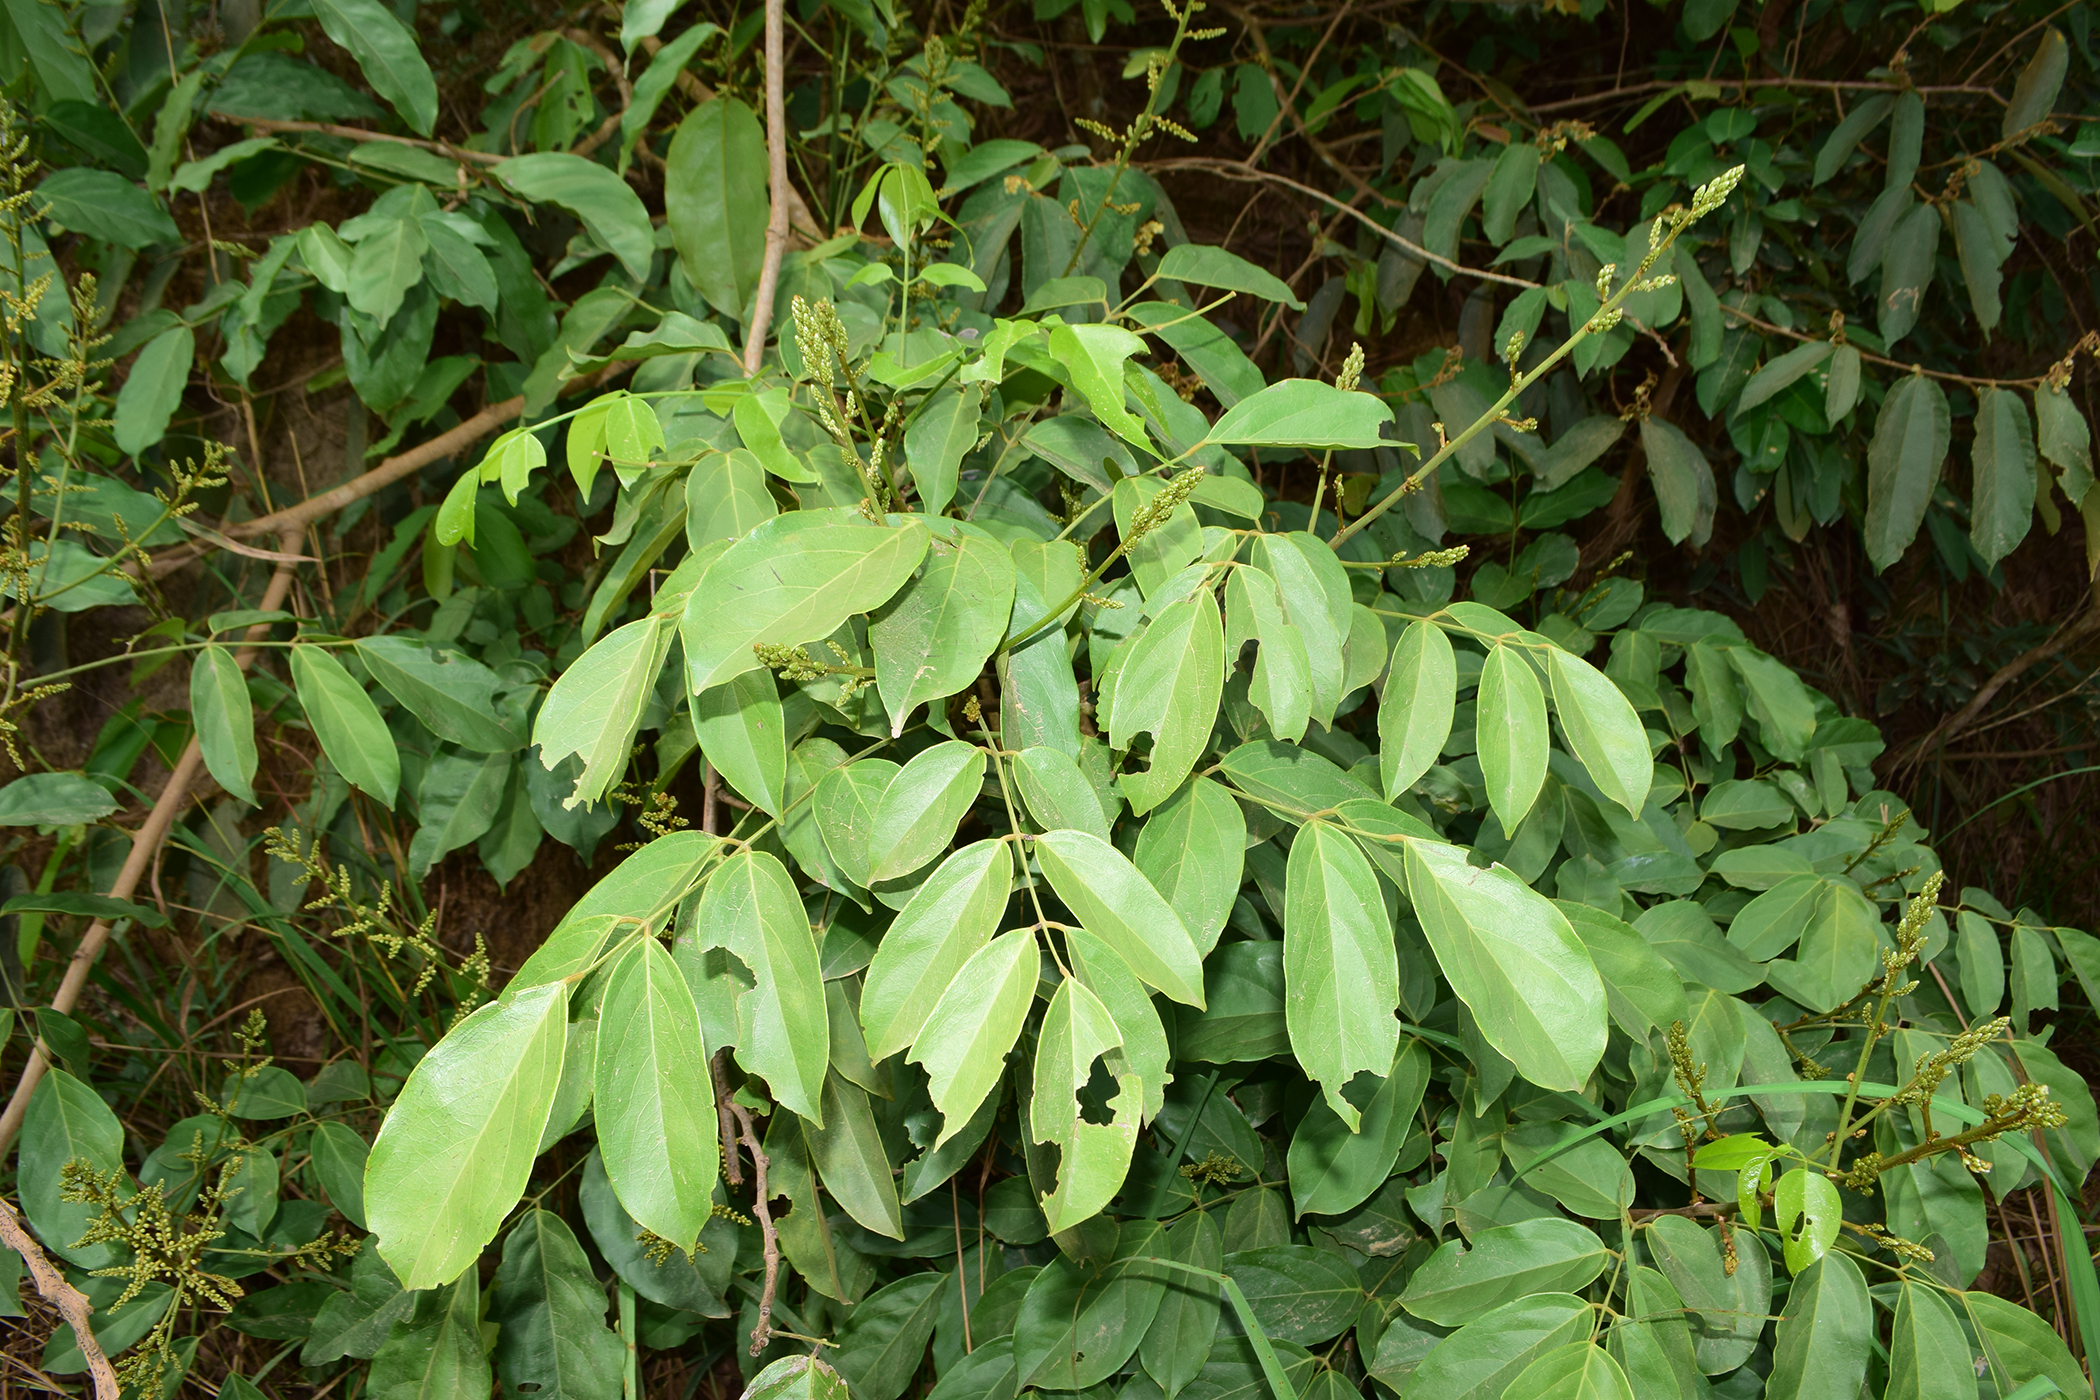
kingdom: Plantae
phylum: Tracheophyta
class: Magnoliopsida
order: Fabales
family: Fabaceae
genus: Aganope
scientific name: Aganope thyrsiflora
